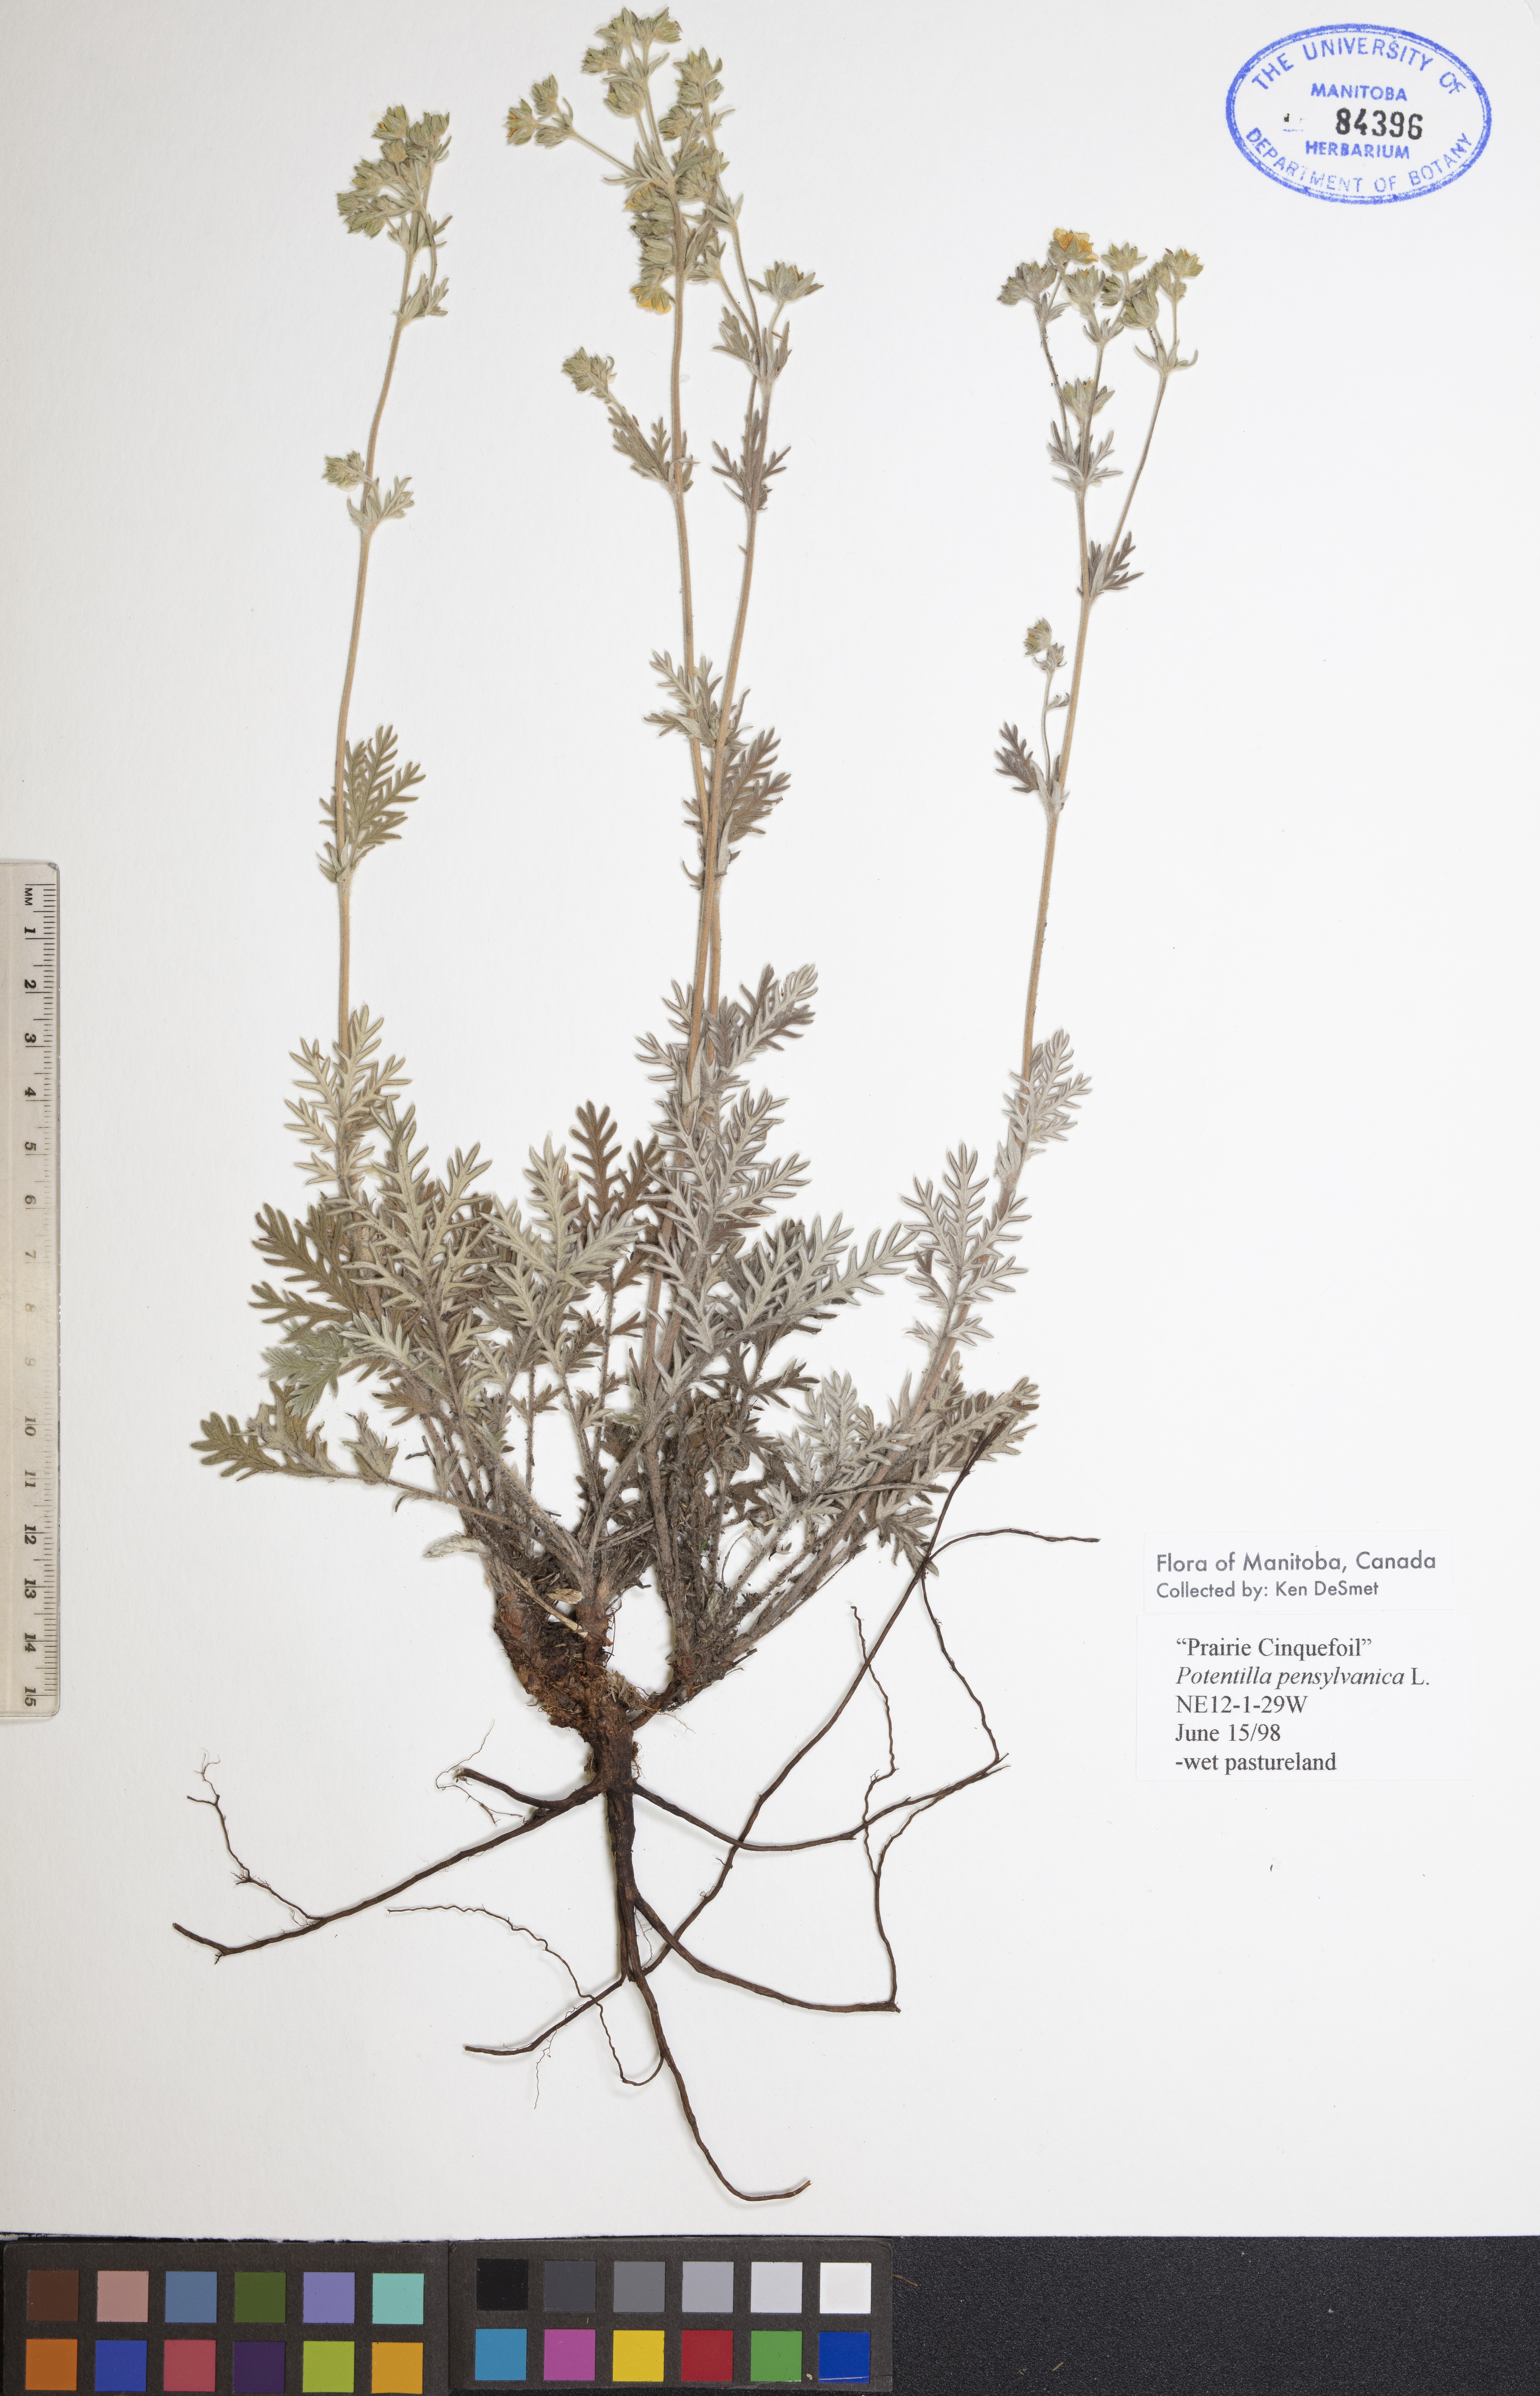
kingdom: Plantae
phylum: Tracheophyta
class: Magnoliopsida
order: Rosales
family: Rosaceae
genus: Potentilla
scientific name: Potentilla pensylvanica
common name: Pennsylvania cinquefoil
